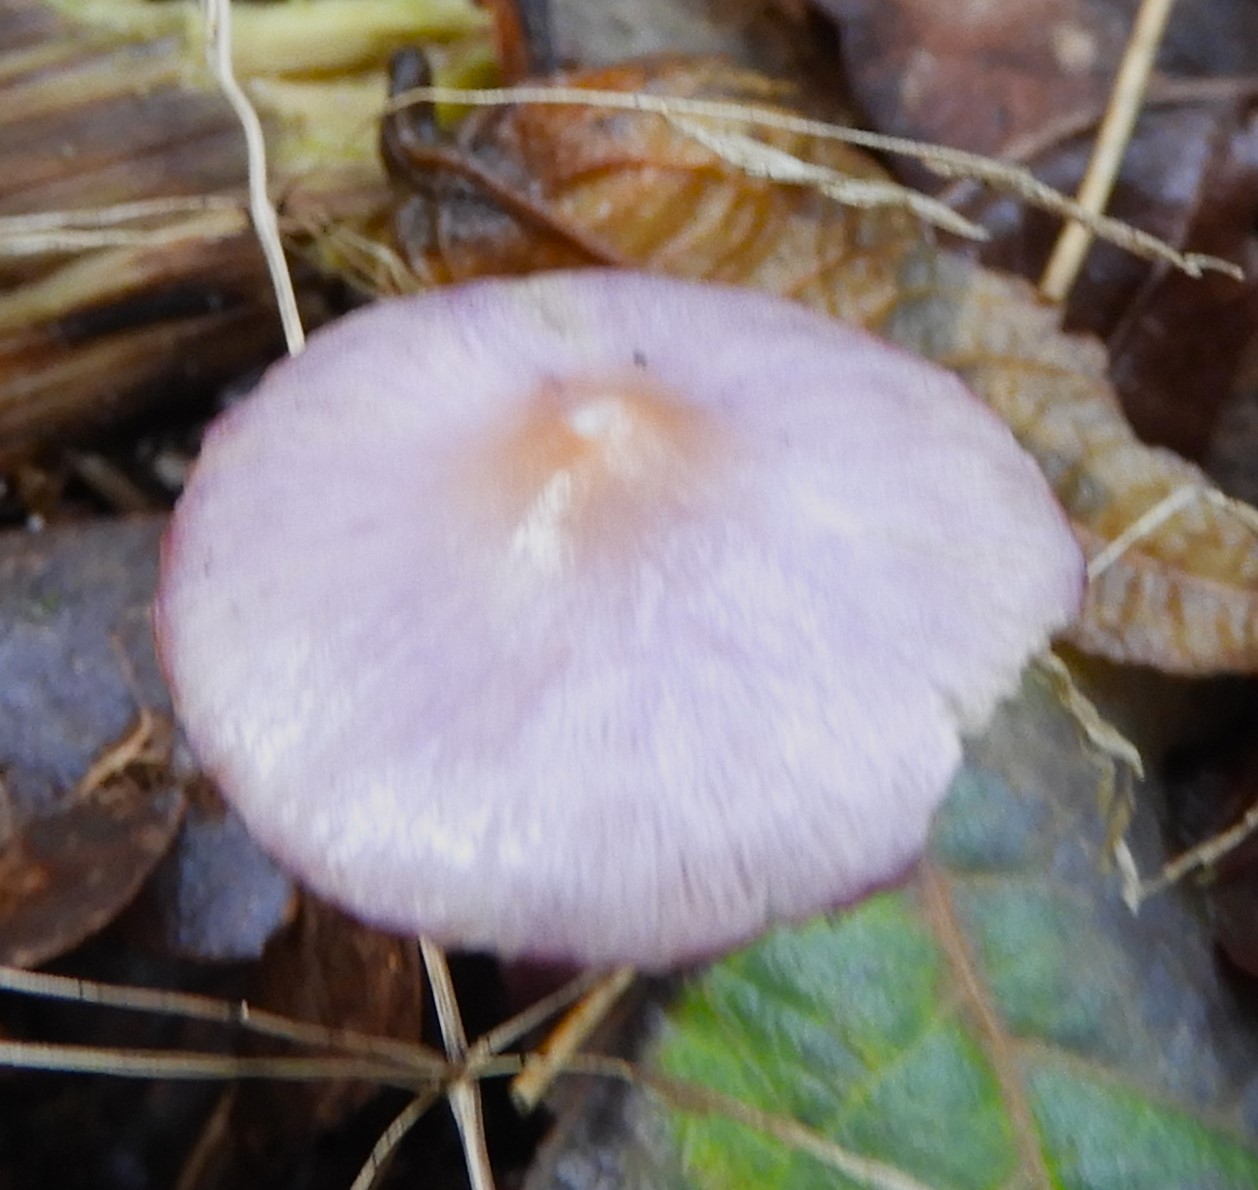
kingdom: Fungi
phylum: Basidiomycota
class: Agaricomycetes
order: Agaricales
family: Inocybaceae
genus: Inocybe
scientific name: Inocybe geophylla
